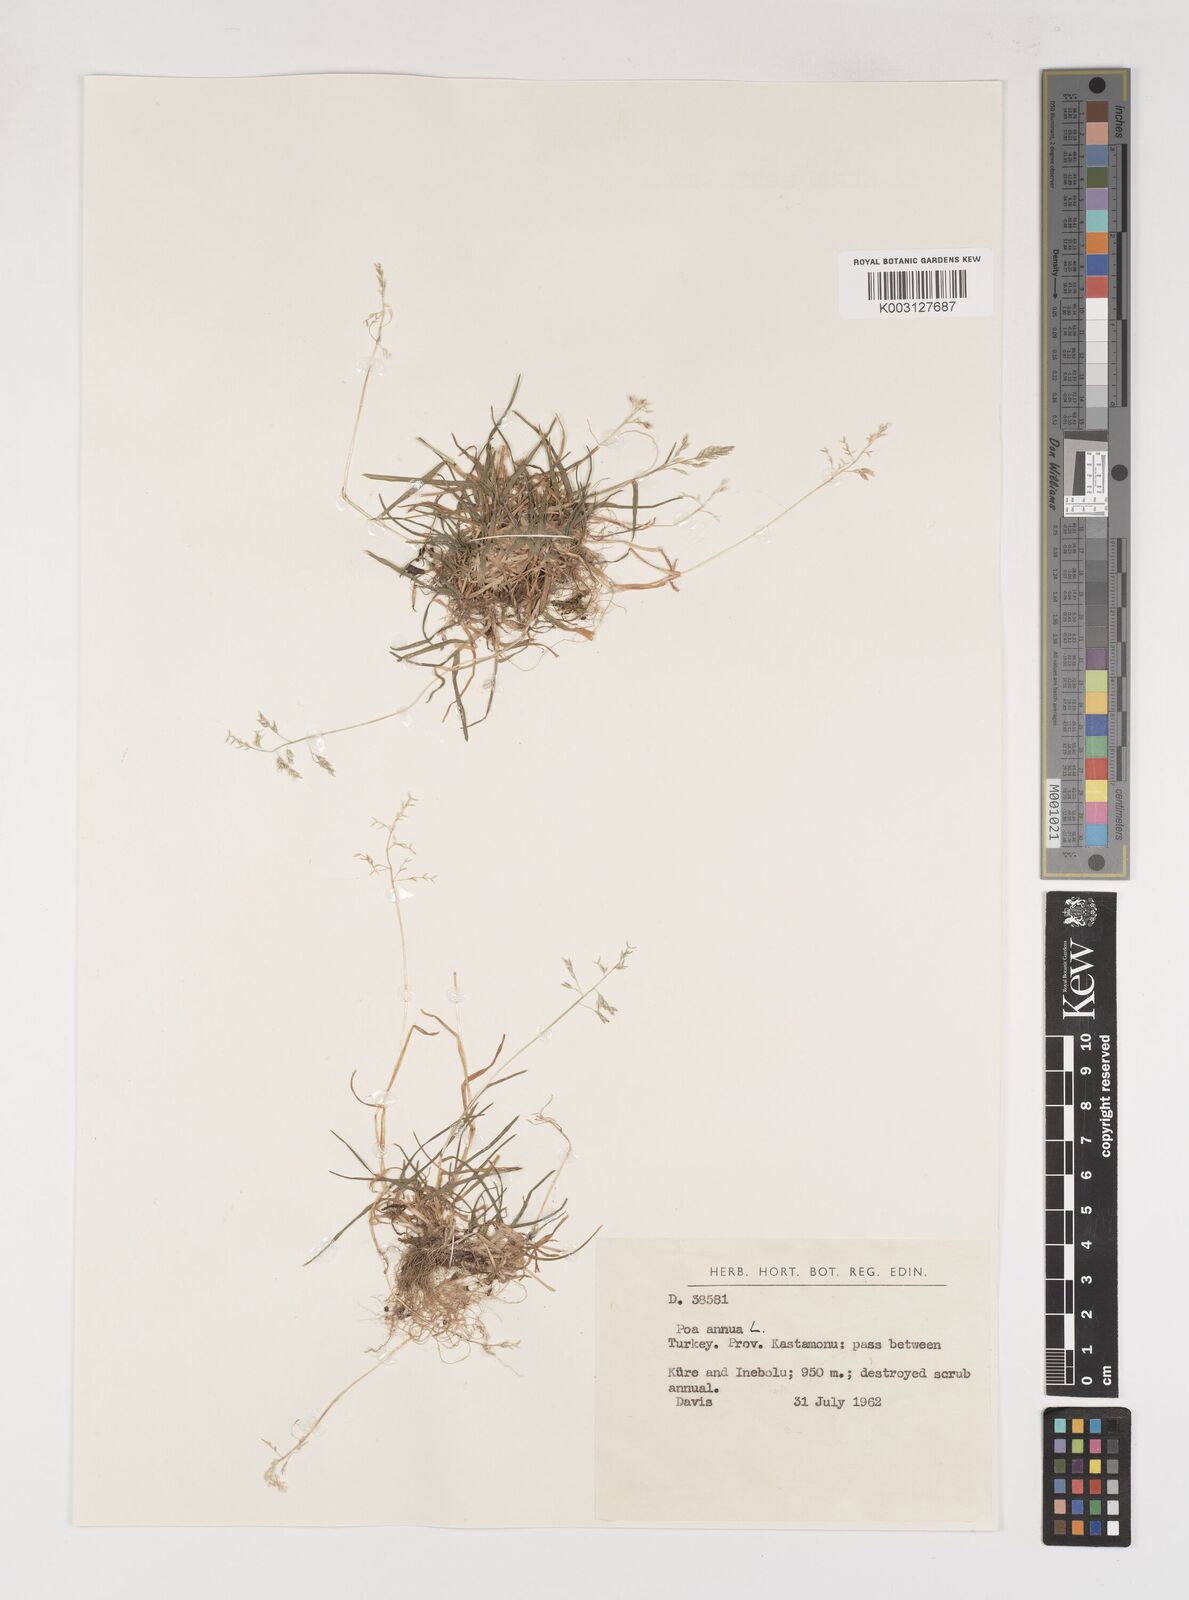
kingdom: Plantae
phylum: Tracheophyta
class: Liliopsida
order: Poales
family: Poaceae
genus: Poa
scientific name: Poa annua
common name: Annual bluegrass
